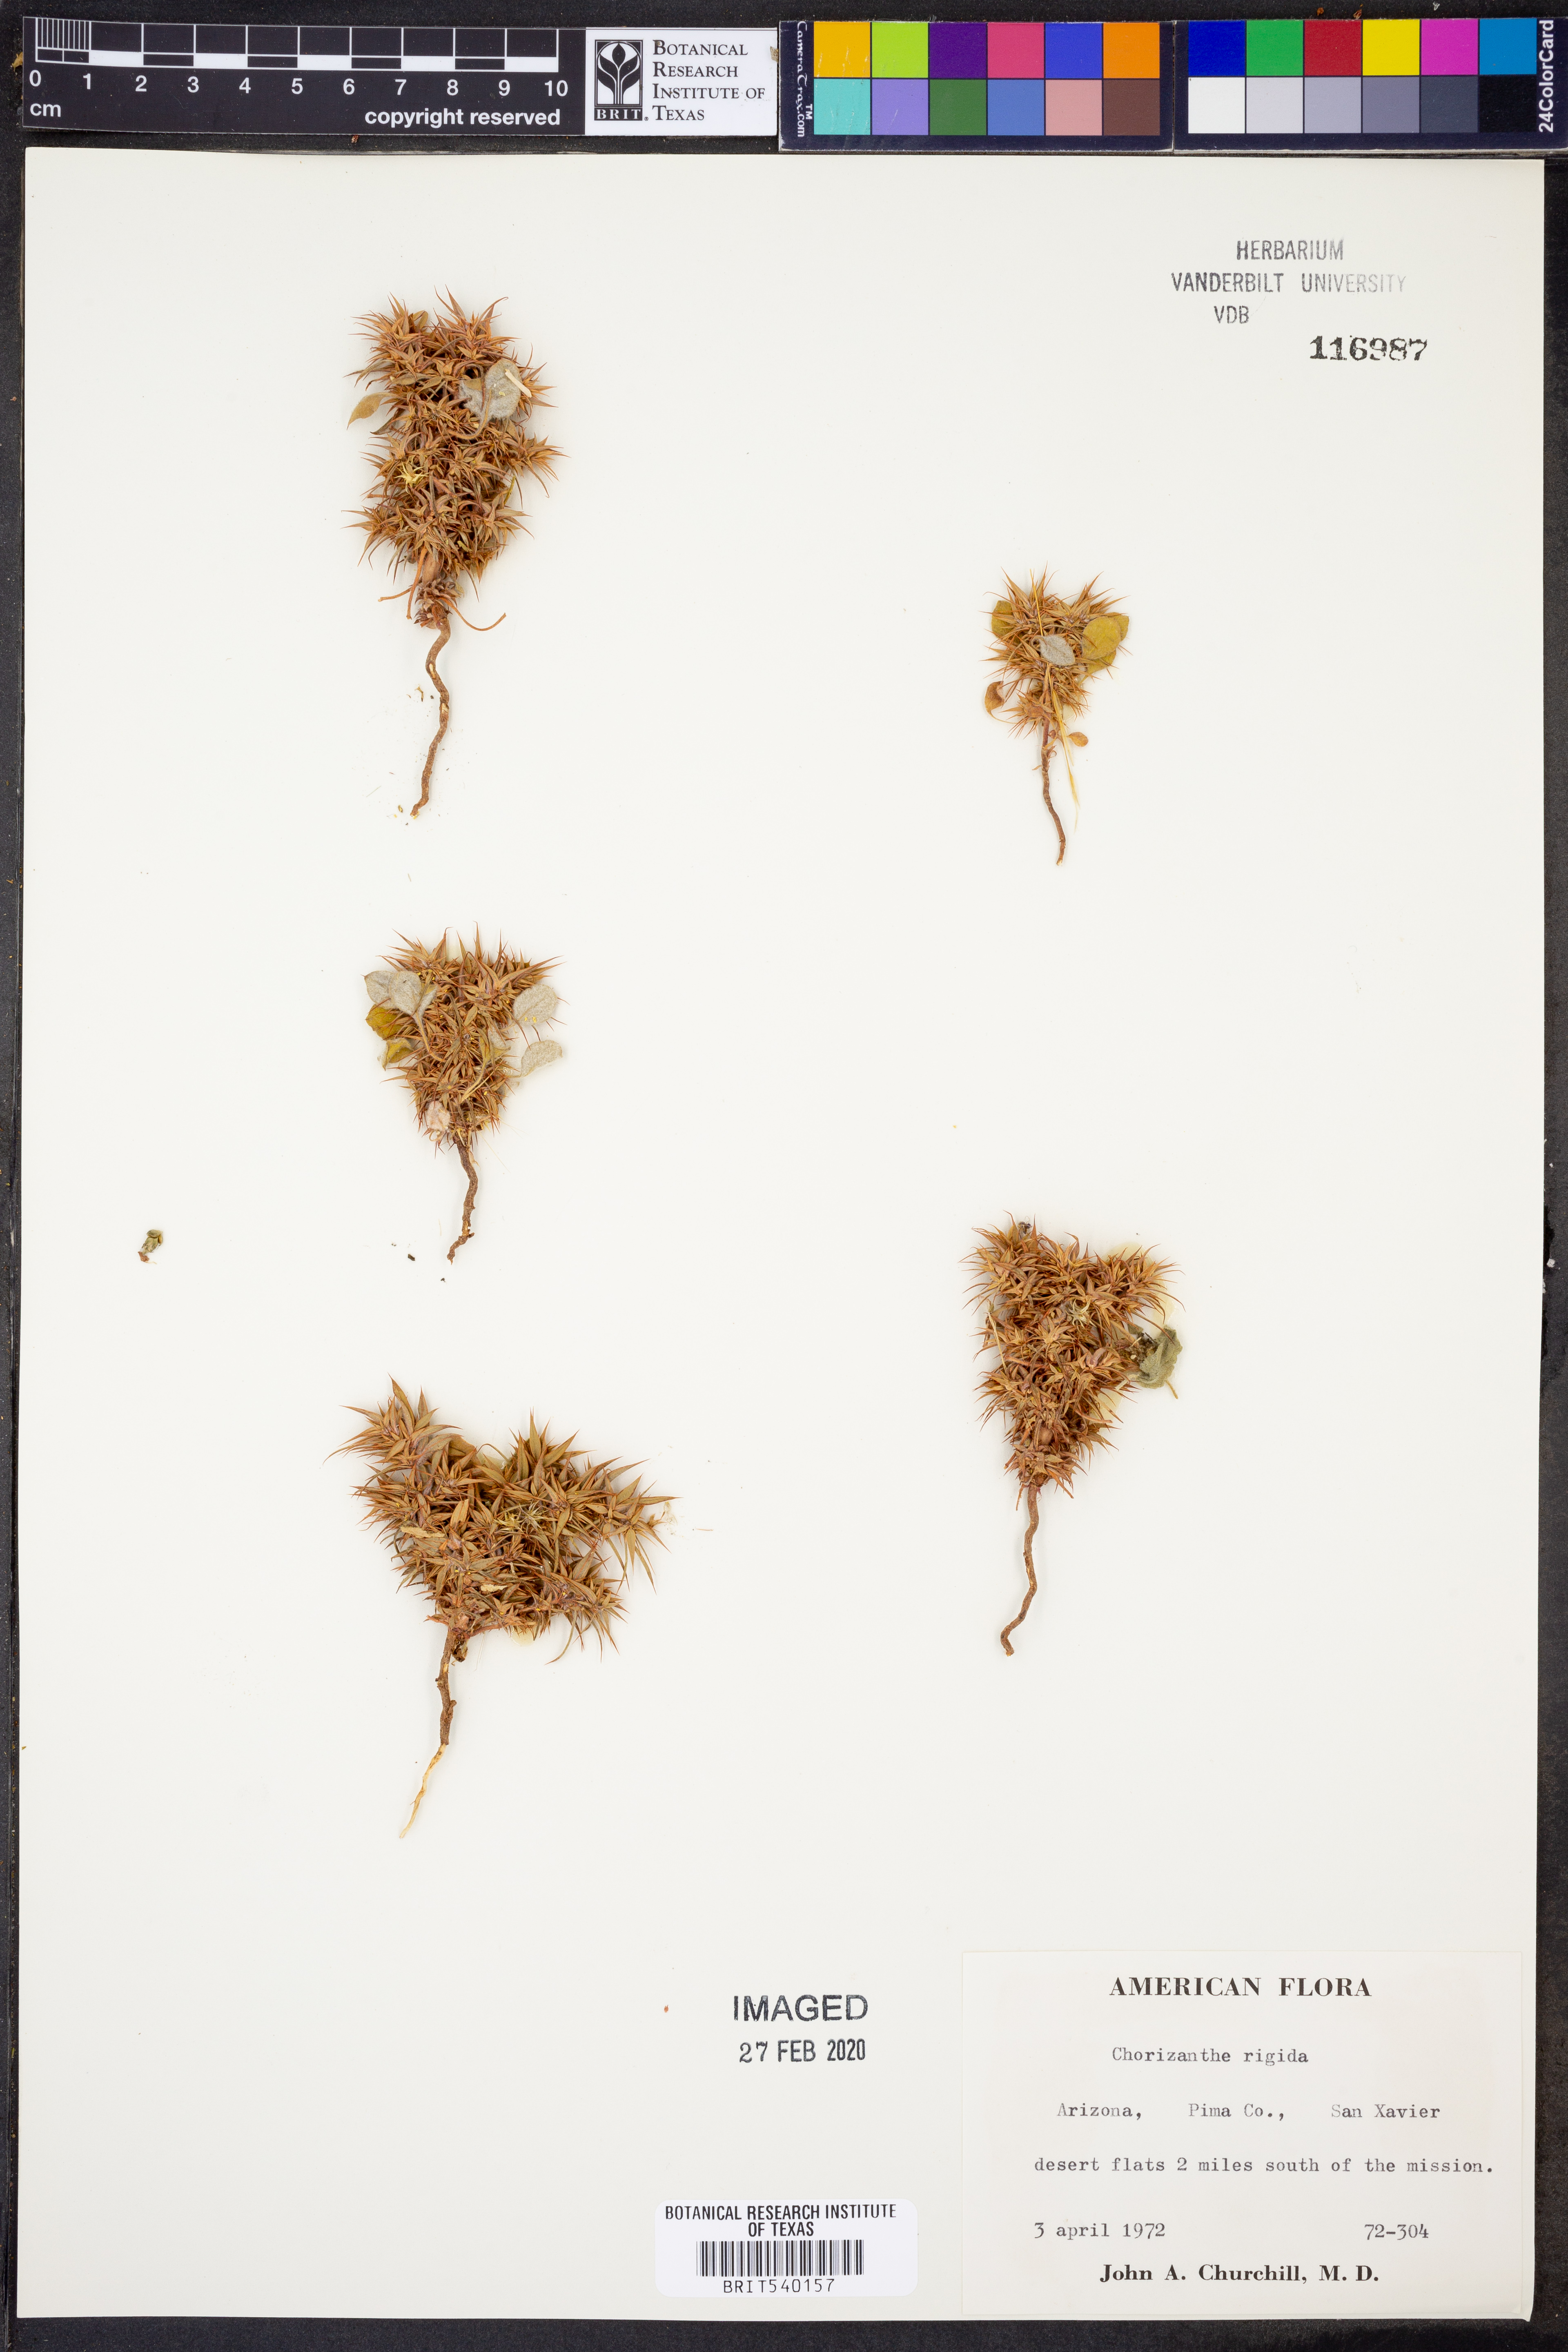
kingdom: Plantae
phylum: Tracheophyta
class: Magnoliopsida
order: Caryophyllales
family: Polygonaceae
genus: Chorizanthe
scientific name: Chorizanthe rigida
